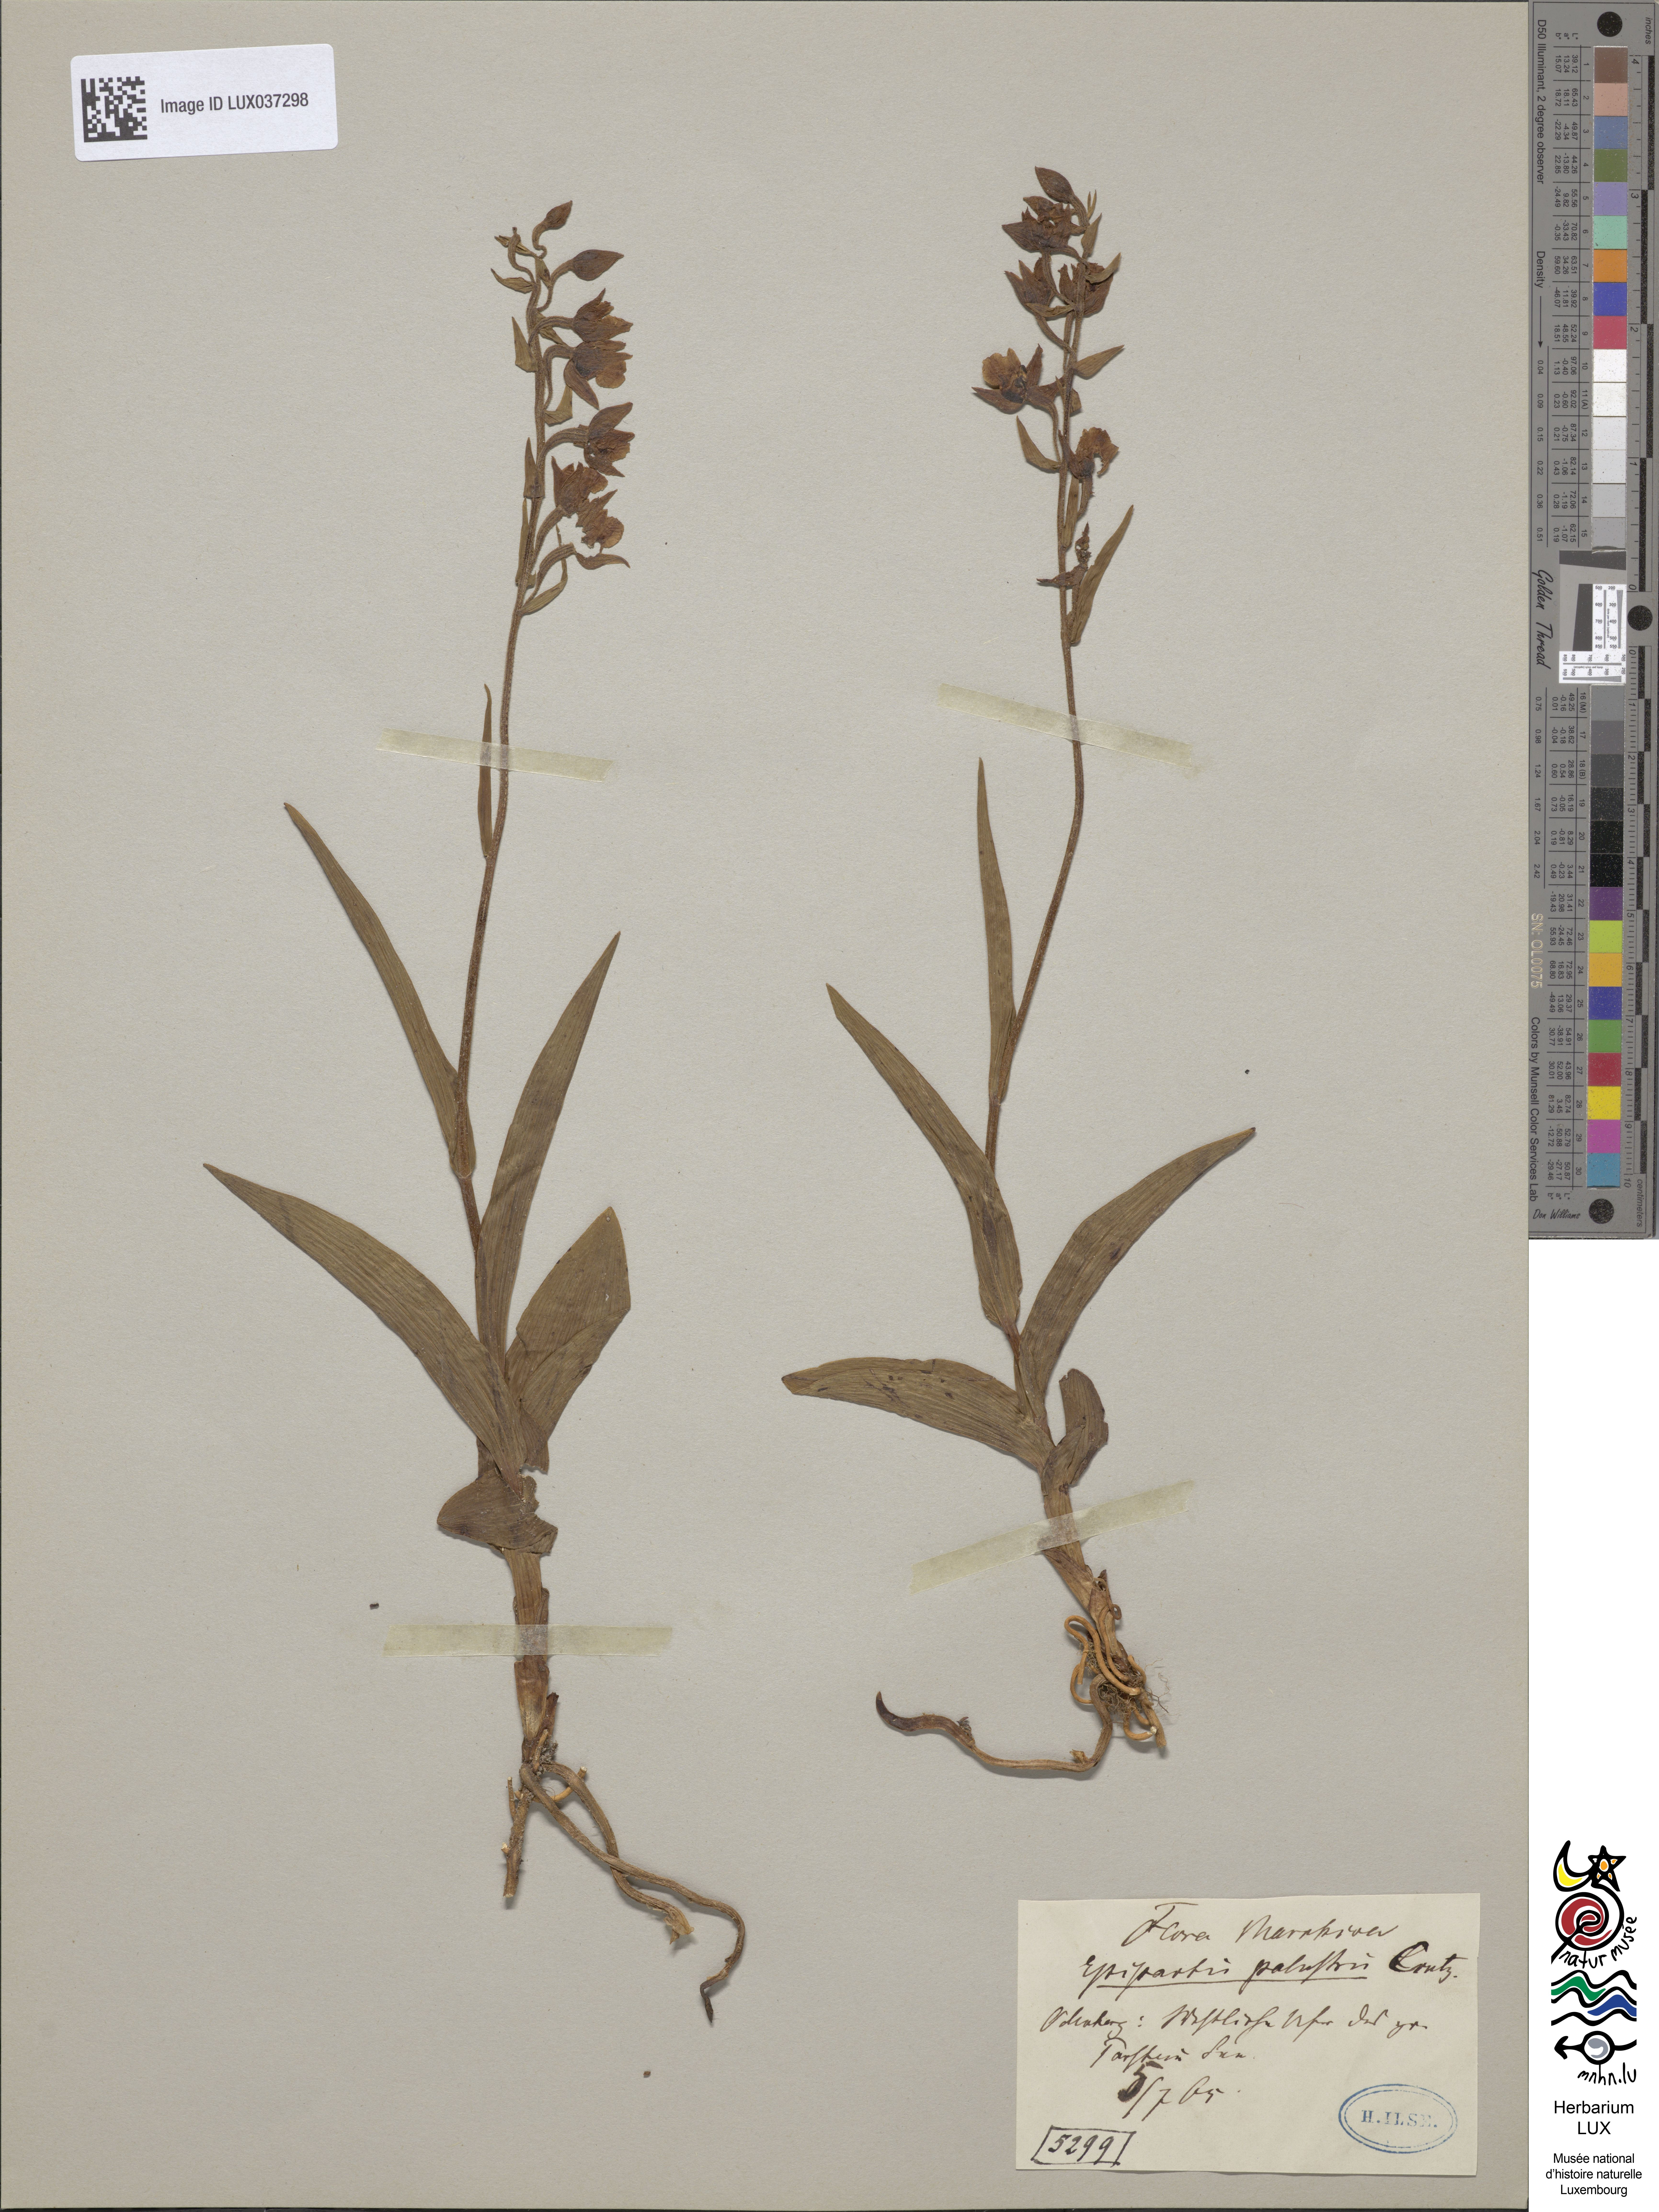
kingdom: Plantae
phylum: Tracheophyta
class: Liliopsida
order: Asparagales
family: Orchidaceae
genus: Epipactis
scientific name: Epipactis palustris
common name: Marsh helleborine
